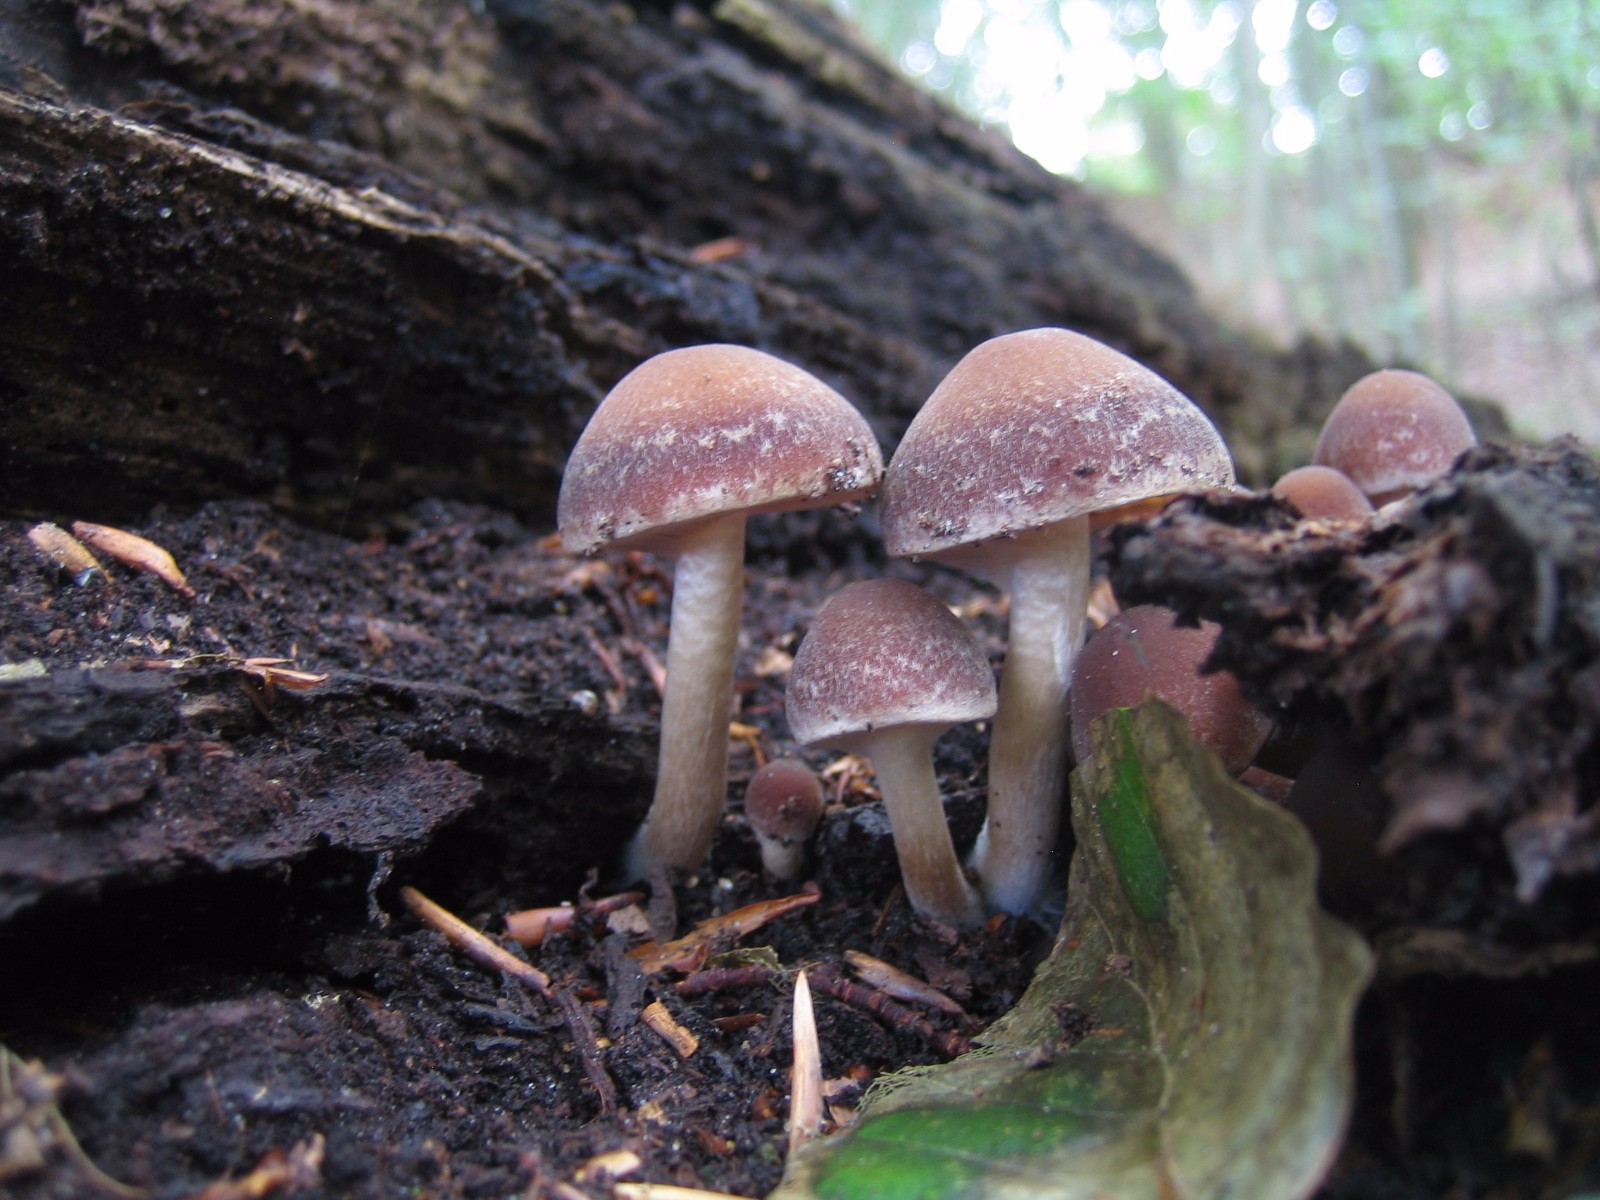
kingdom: Fungi
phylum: Basidiomycota
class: Agaricomycetes
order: Agaricales
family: Psathyrellaceae
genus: Psathyrella
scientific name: Psathyrella
